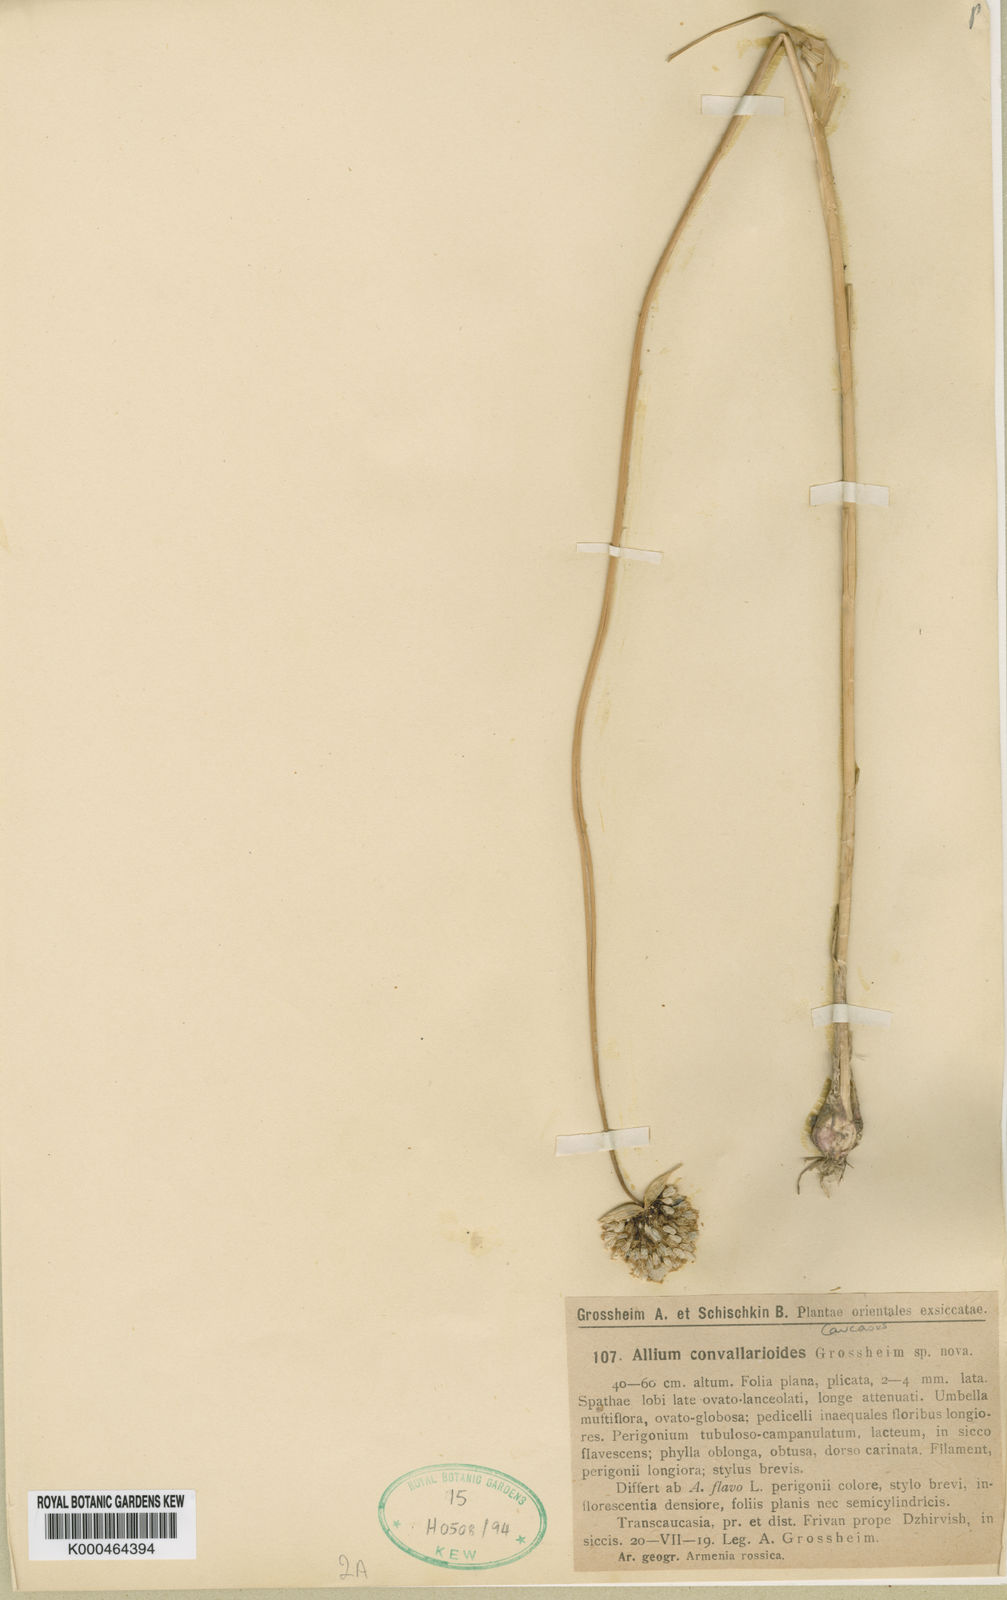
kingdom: Plantae
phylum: Tracheophyta
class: Liliopsida
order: Asparagales
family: Amaryllidaceae
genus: Allium
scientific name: Allium convallarioides
